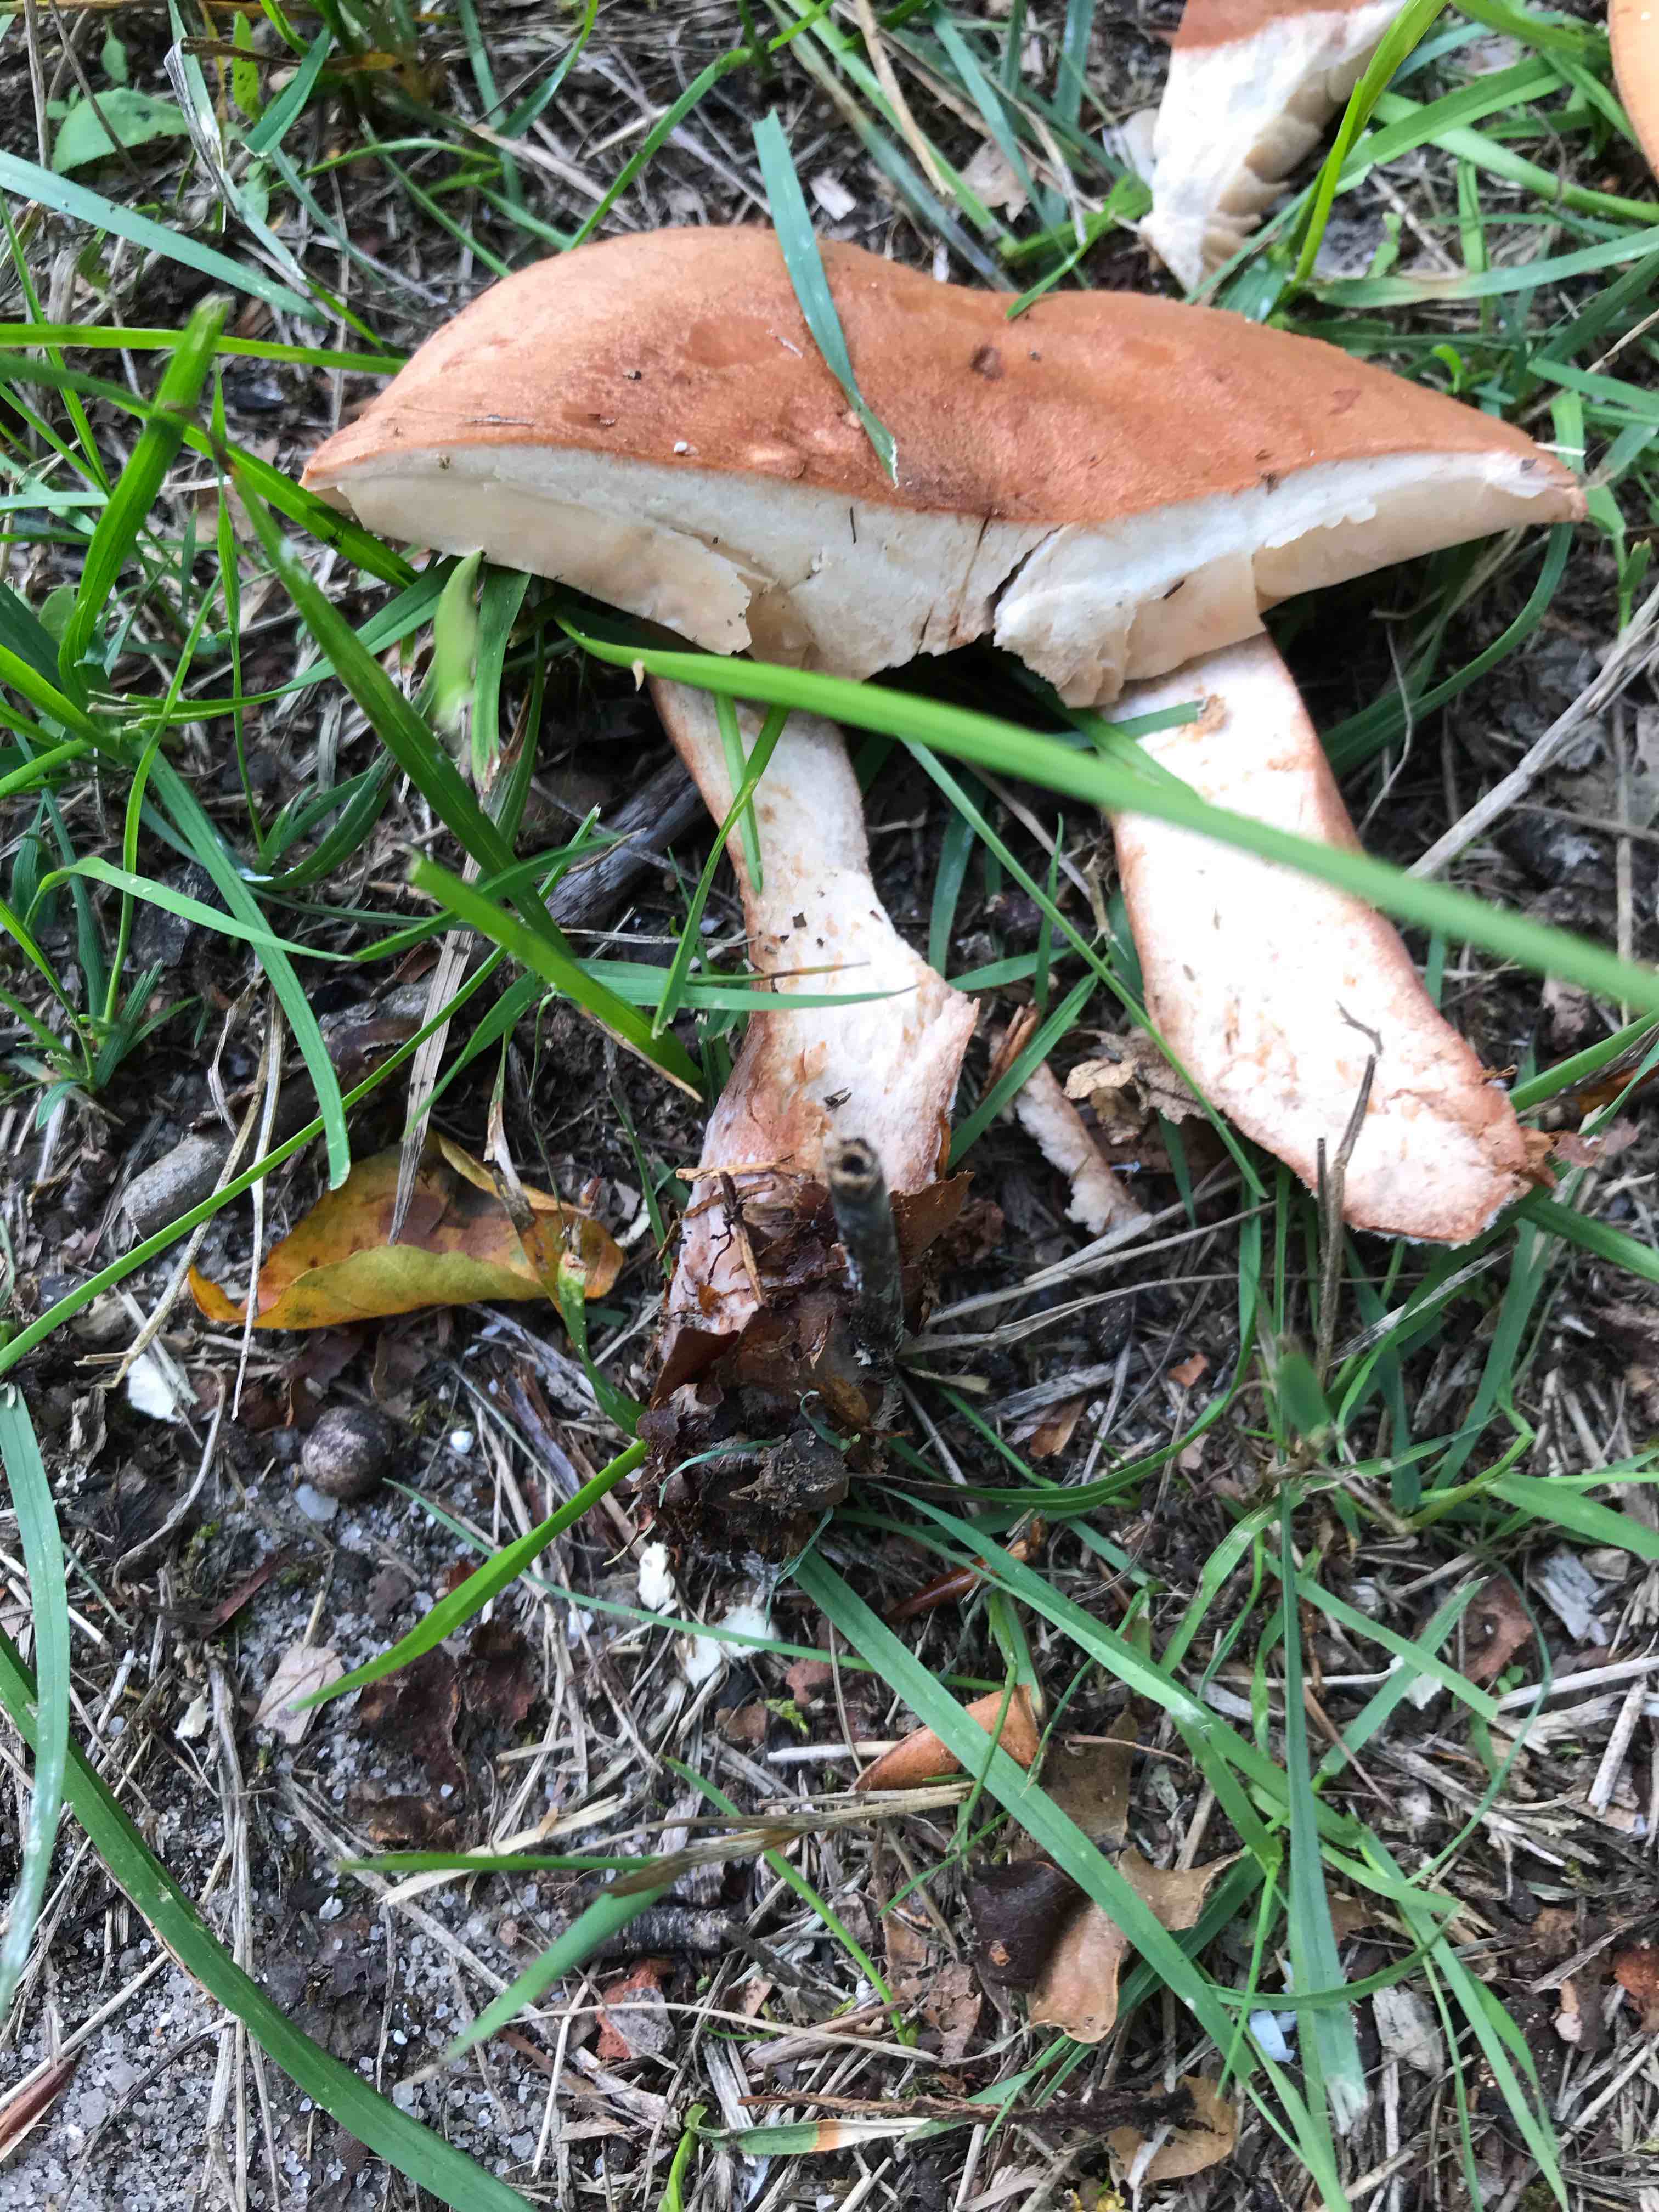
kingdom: Fungi
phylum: Basidiomycota
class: Agaricomycetes
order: Russulales
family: Russulaceae
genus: Lactarius
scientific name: Lactarius quietus
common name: ege-mælkehat
